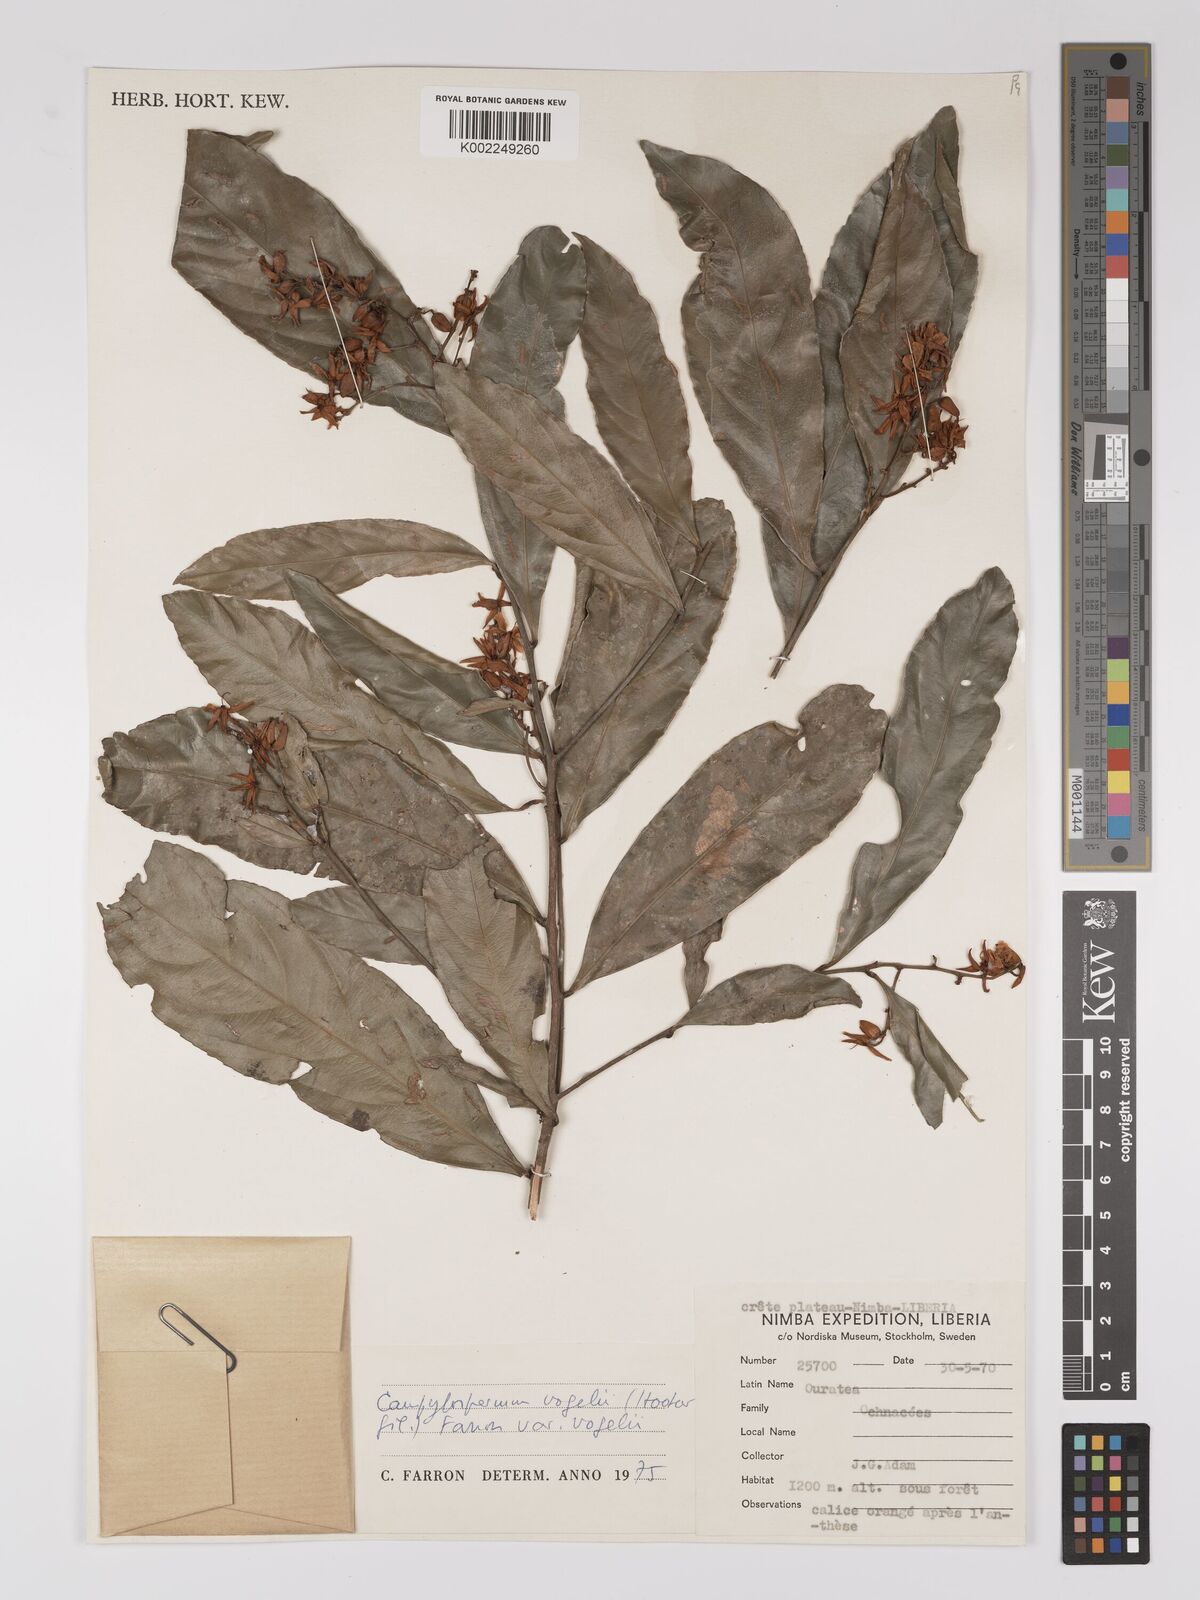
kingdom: Plantae
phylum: Tracheophyta
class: Magnoliopsida
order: Malpighiales
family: Ochnaceae
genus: Campylospermum
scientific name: Campylospermum vogelii
